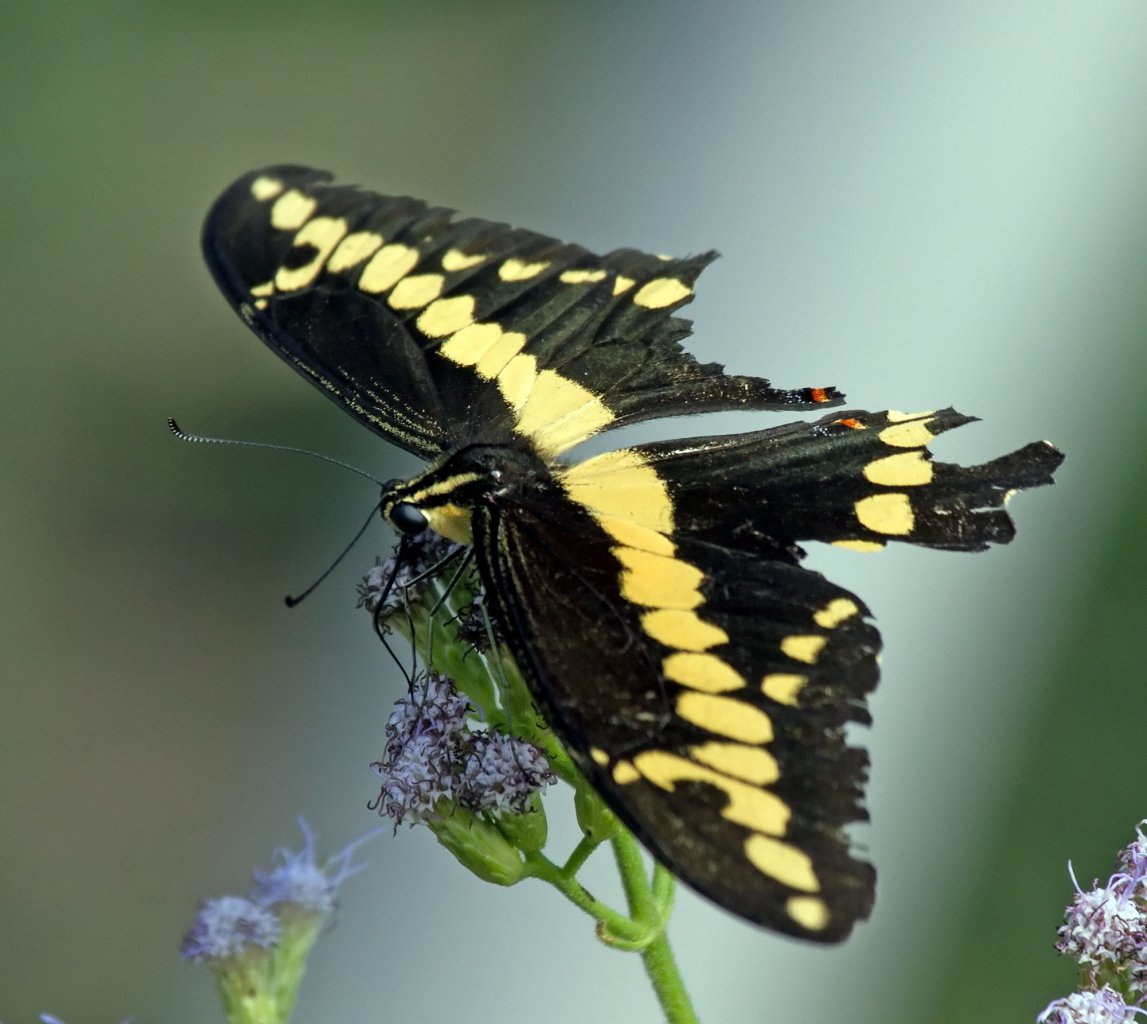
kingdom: Animalia
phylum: Arthropoda
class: Insecta
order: Lepidoptera
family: Papilionidae
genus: Papilio
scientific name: Papilio rumiko
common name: Western Giant Swallowtail
